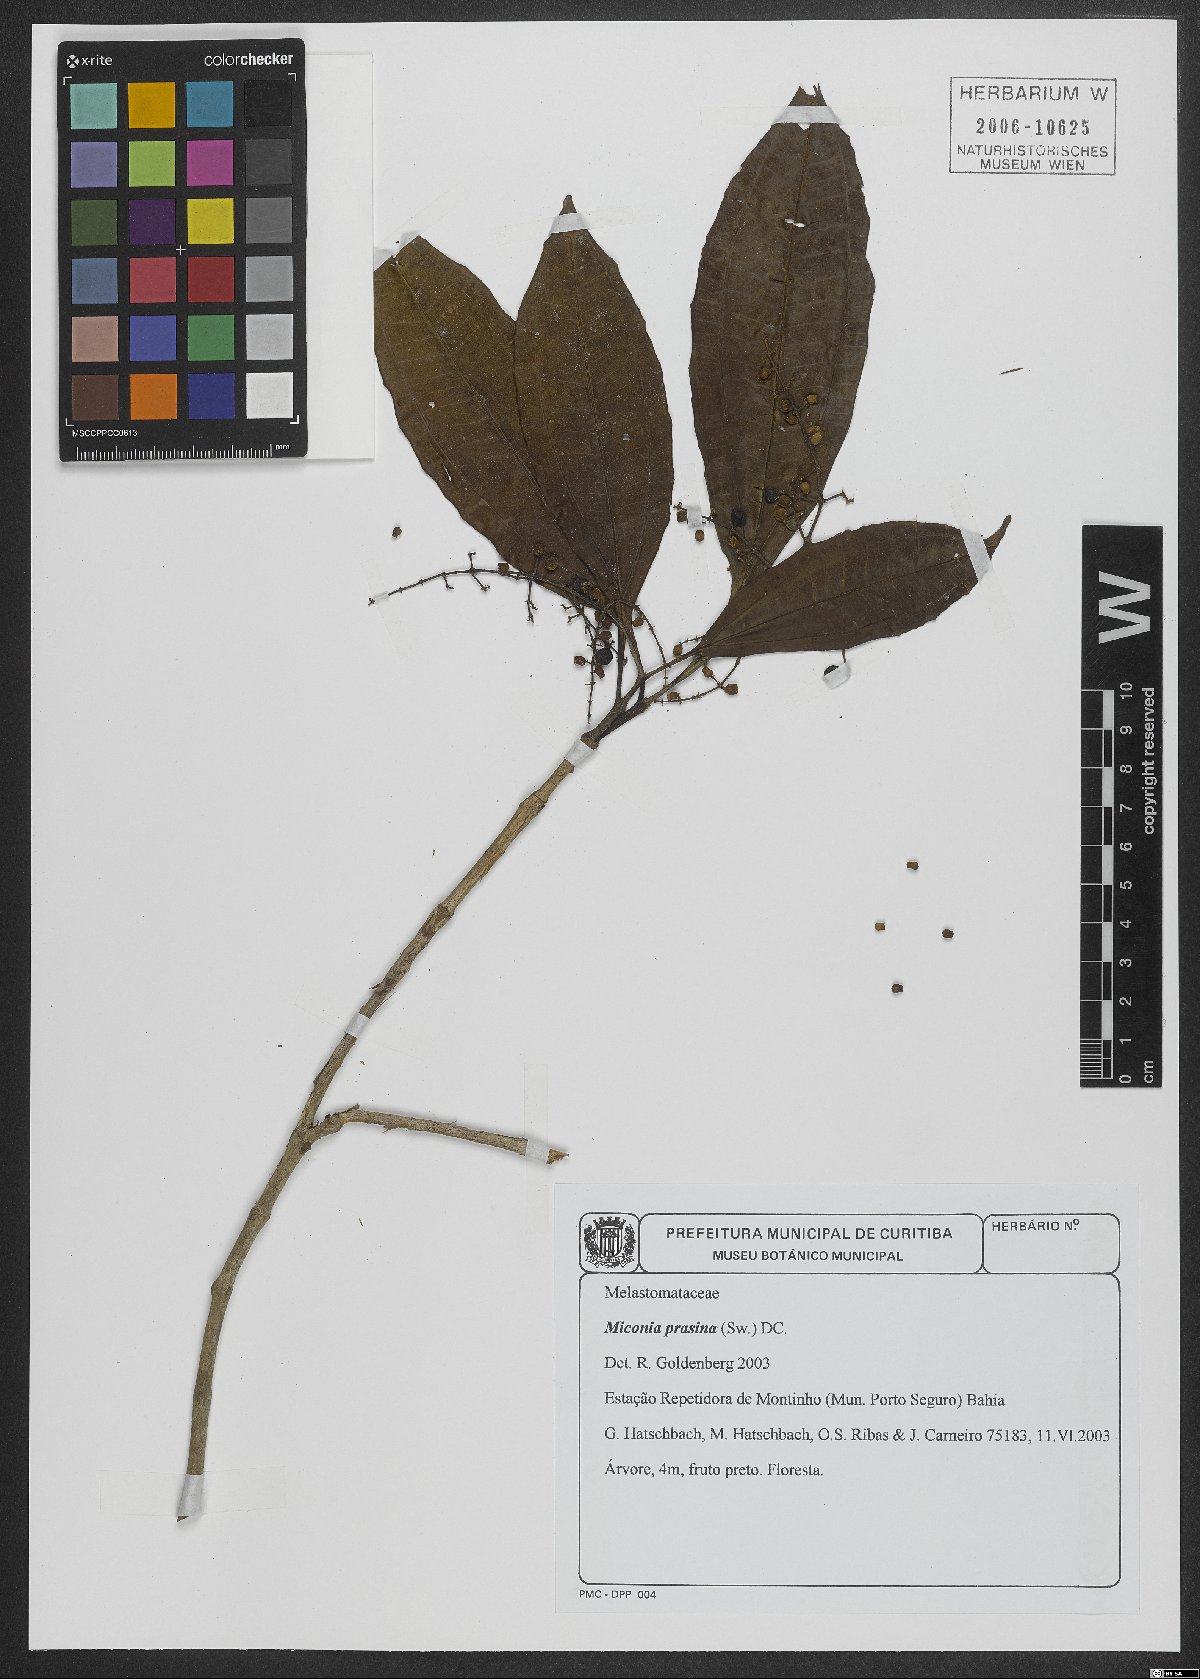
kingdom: Plantae
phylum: Tracheophyta
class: Magnoliopsida
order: Myrtales
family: Melastomataceae
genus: Miconia
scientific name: Miconia prasina
